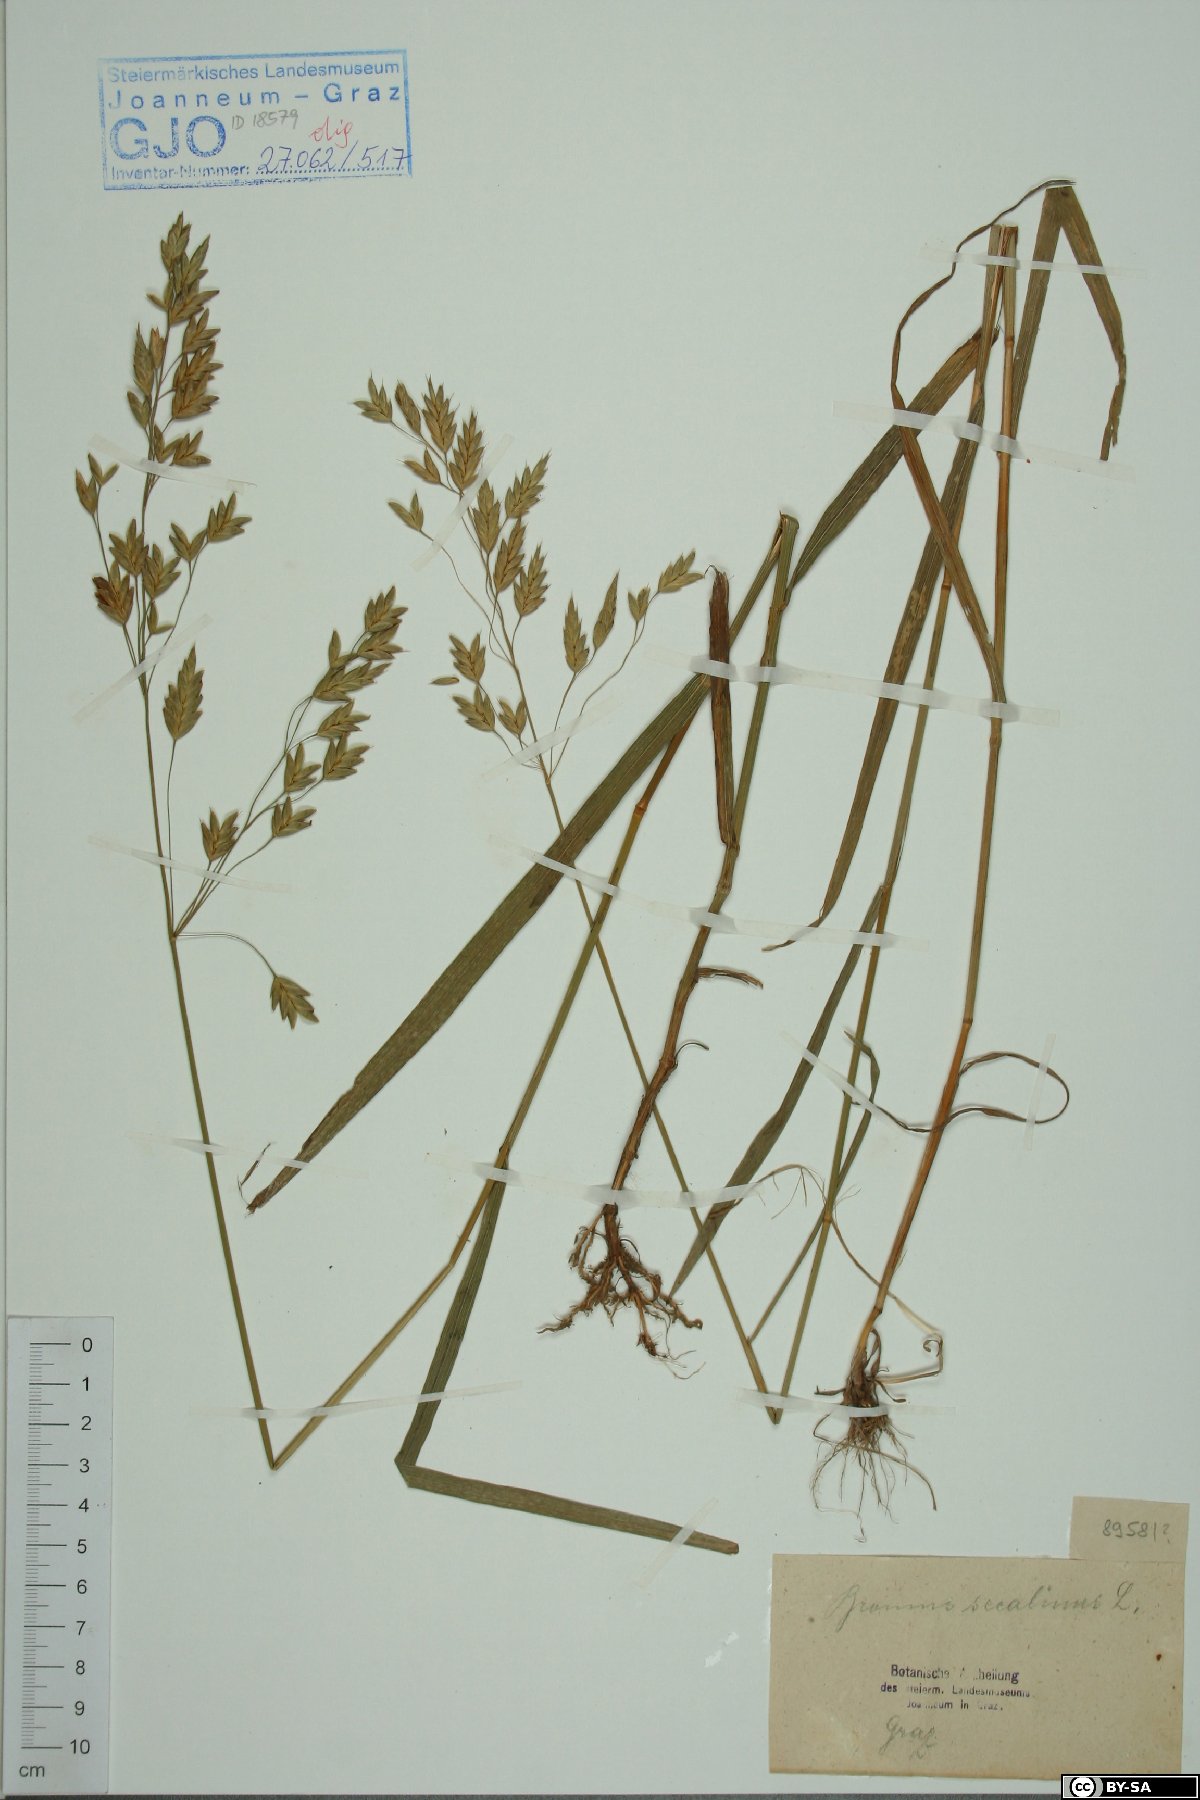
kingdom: Plantae
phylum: Tracheophyta
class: Liliopsida
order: Poales
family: Poaceae
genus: Bromus
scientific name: Bromus secalinus
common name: Rye brome
